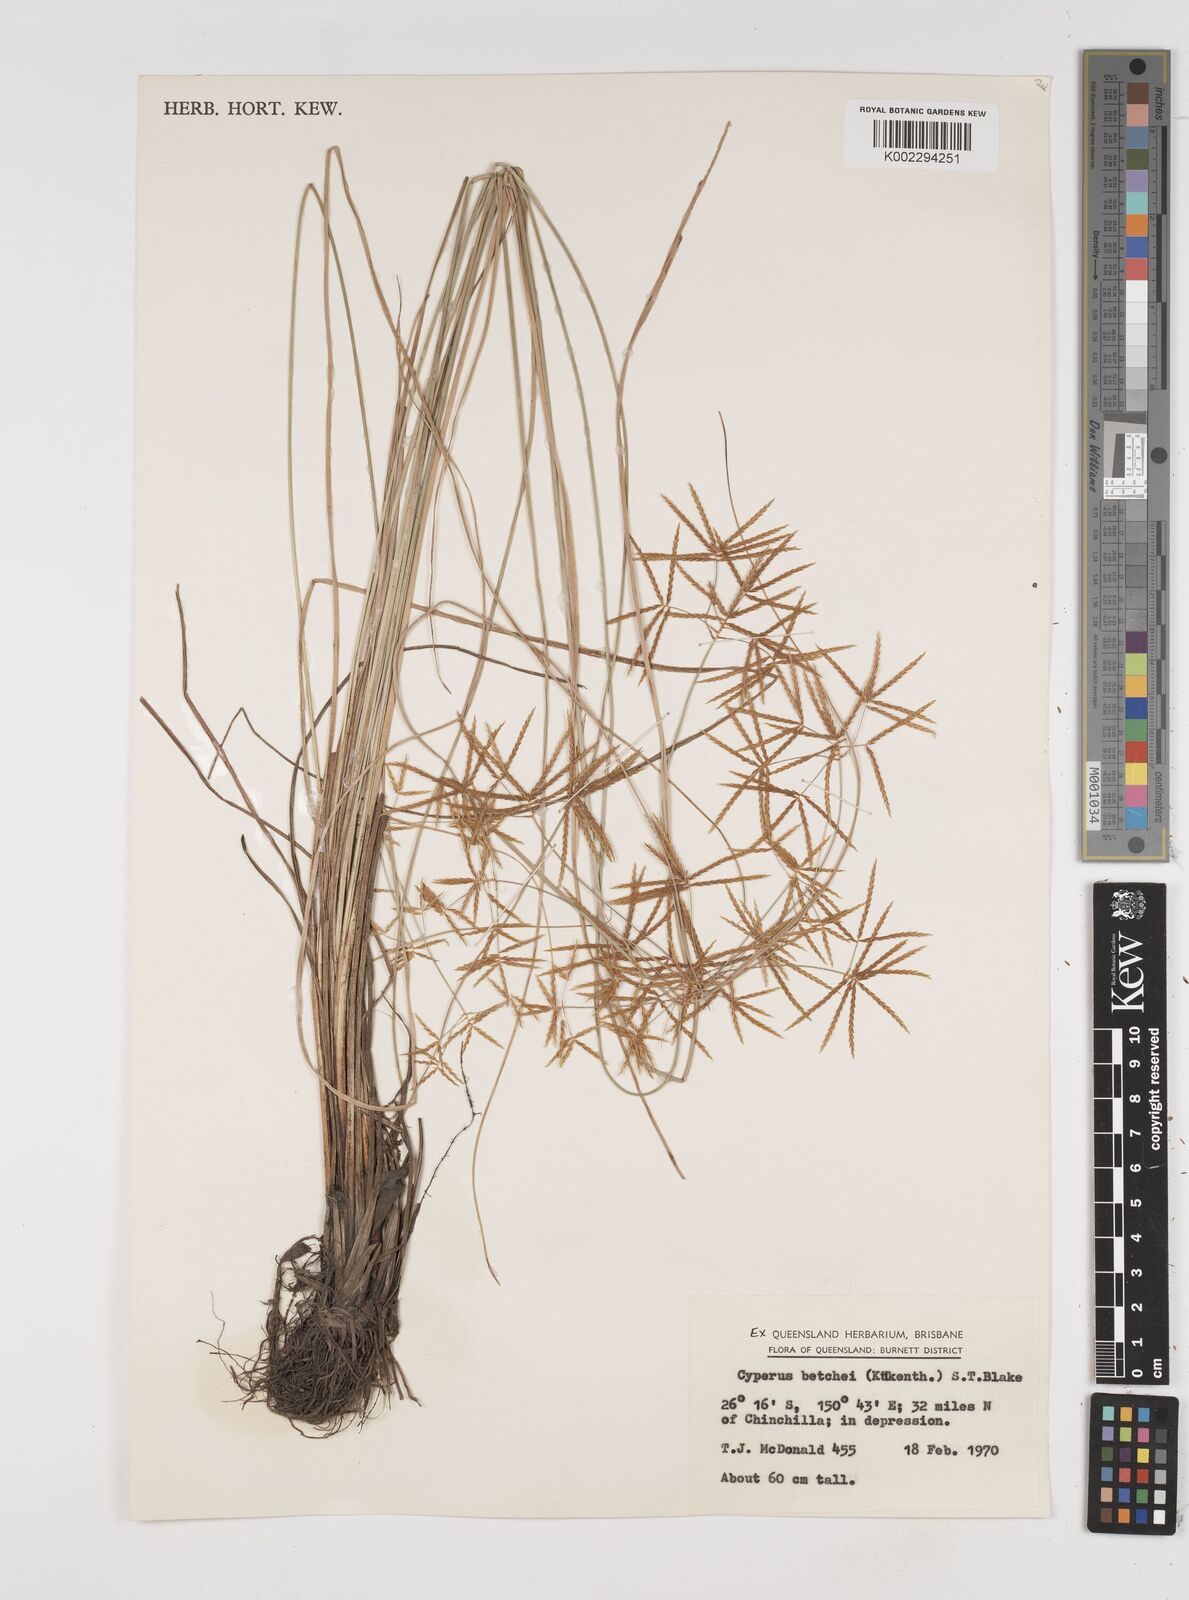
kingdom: Plantae
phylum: Tracheophyta
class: Liliopsida
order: Poales
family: Cyperaceae
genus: Cyperus
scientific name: Cyperus betchei
